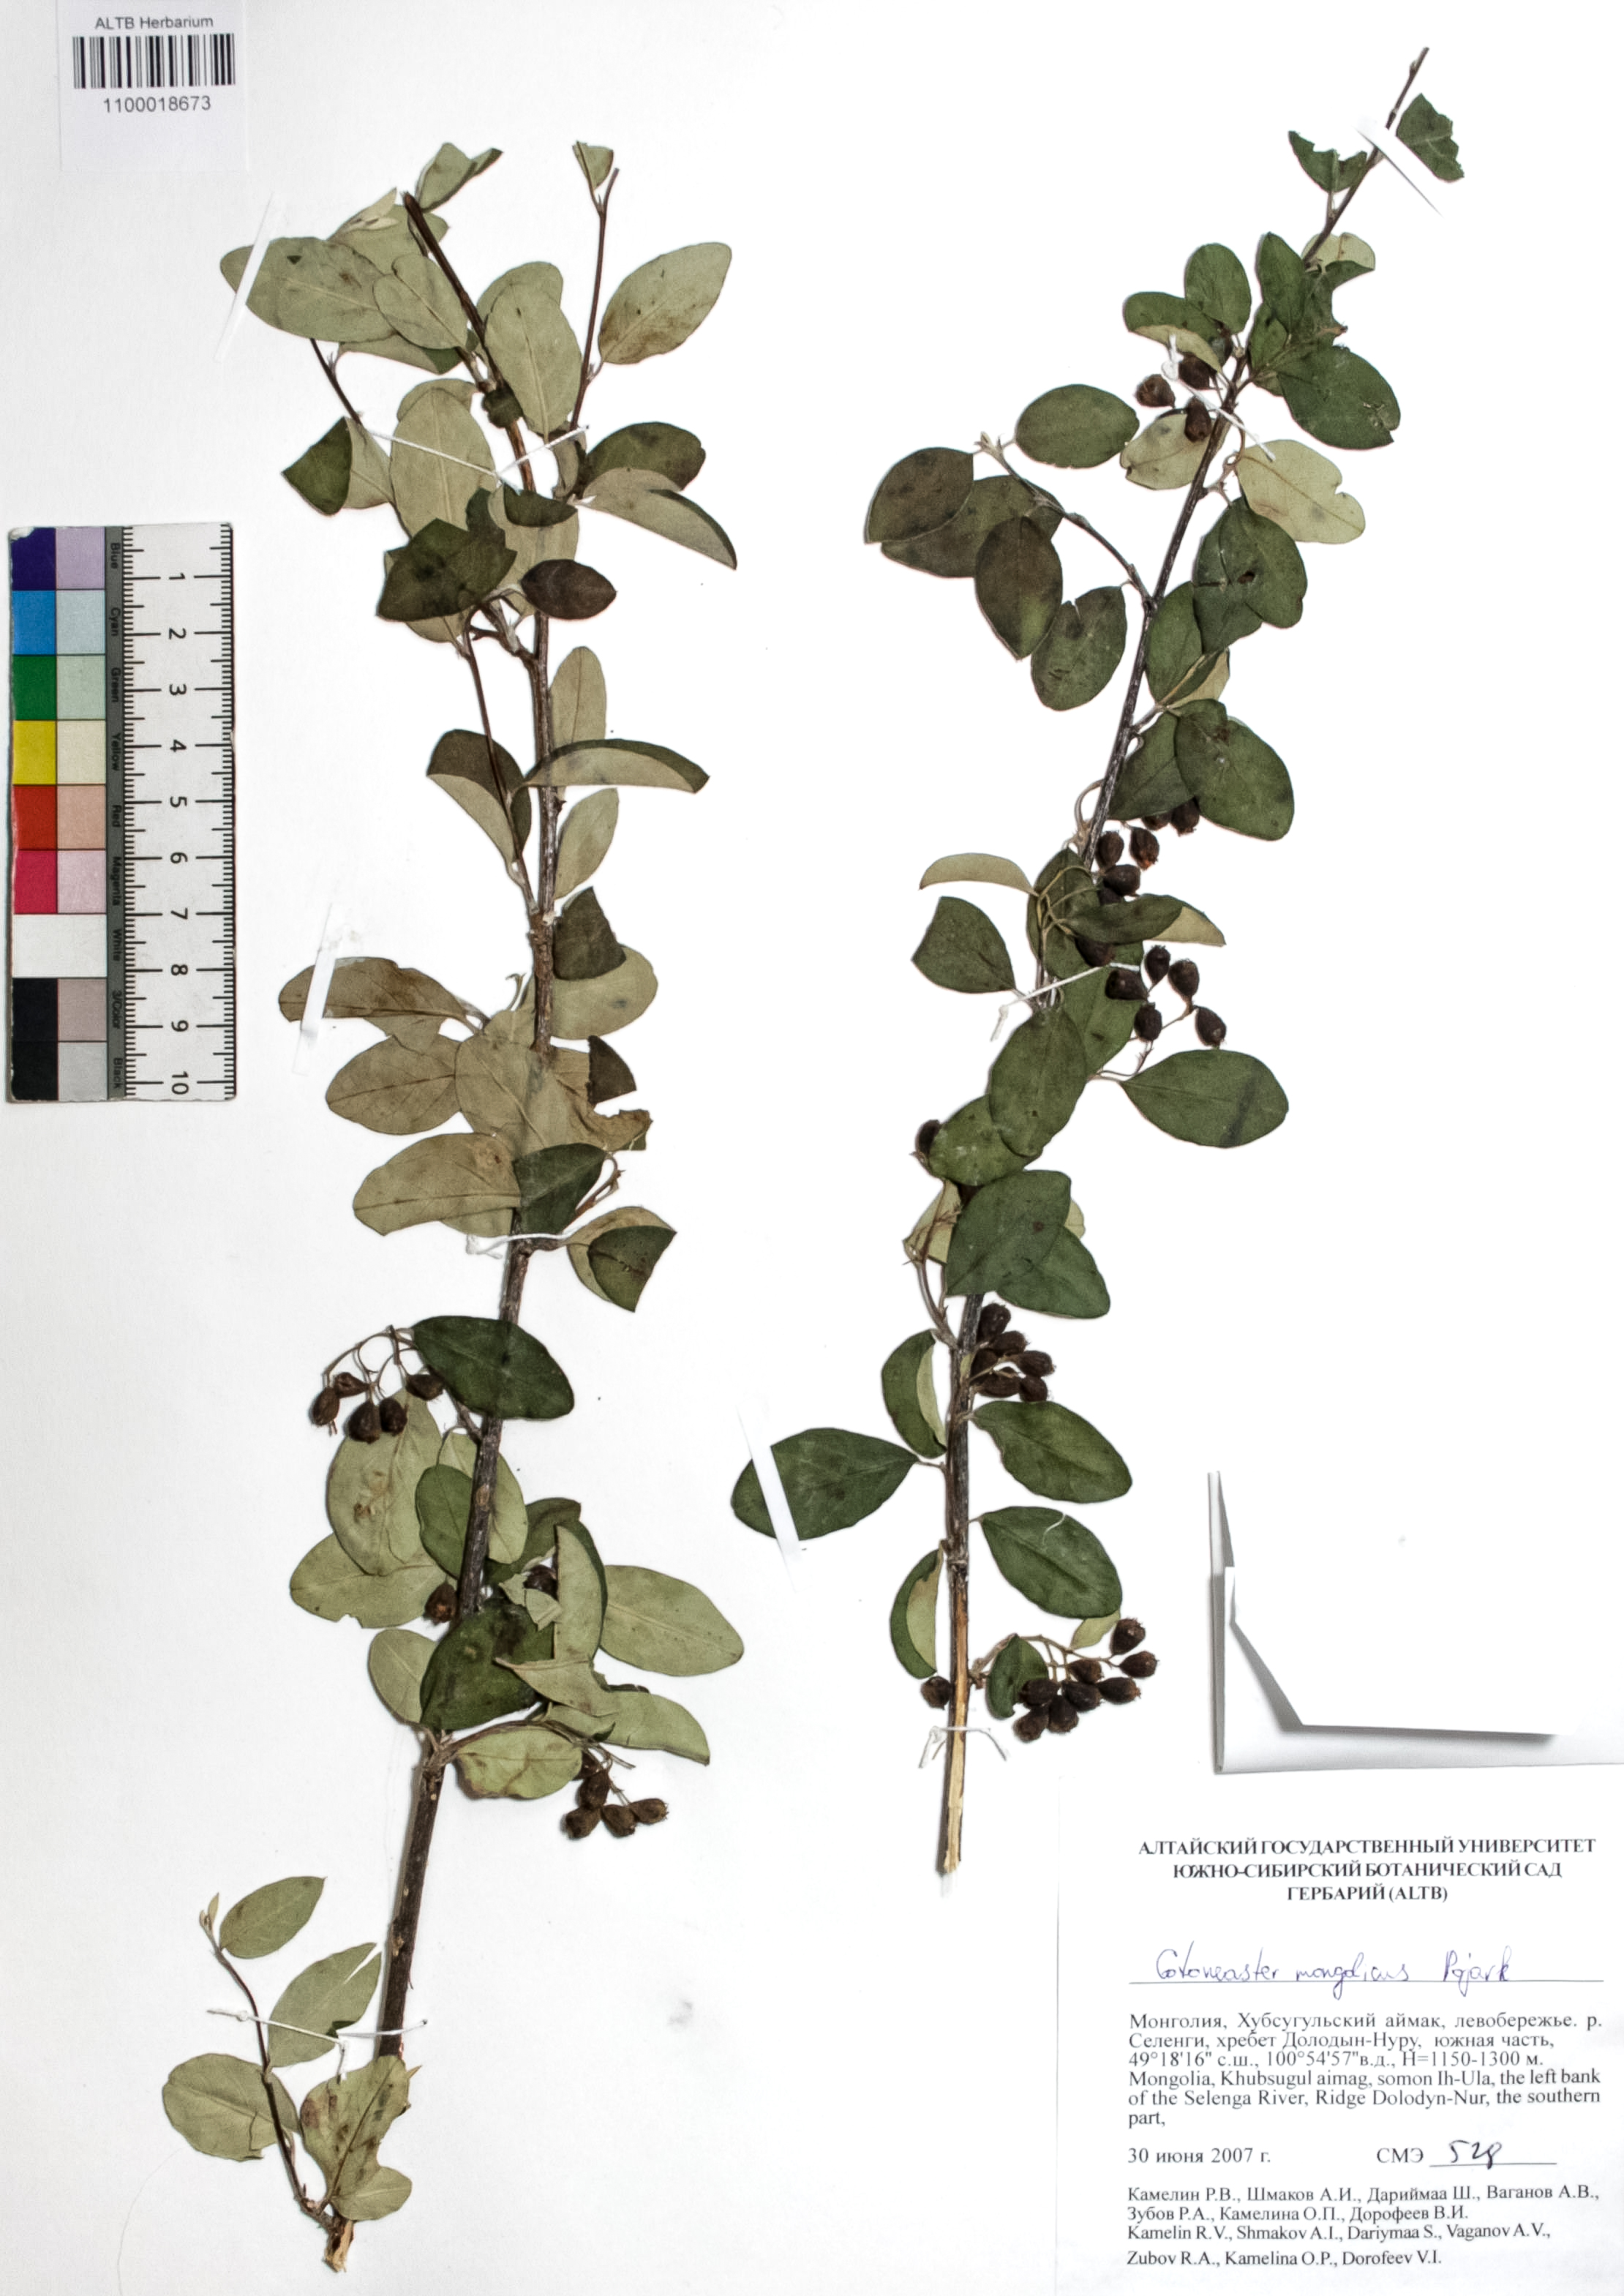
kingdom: Plantae
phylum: Tracheophyta
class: Magnoliopsida
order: Rosales
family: Rosaceae
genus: Cotoneaster
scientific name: Cotoneaster mongolicus
